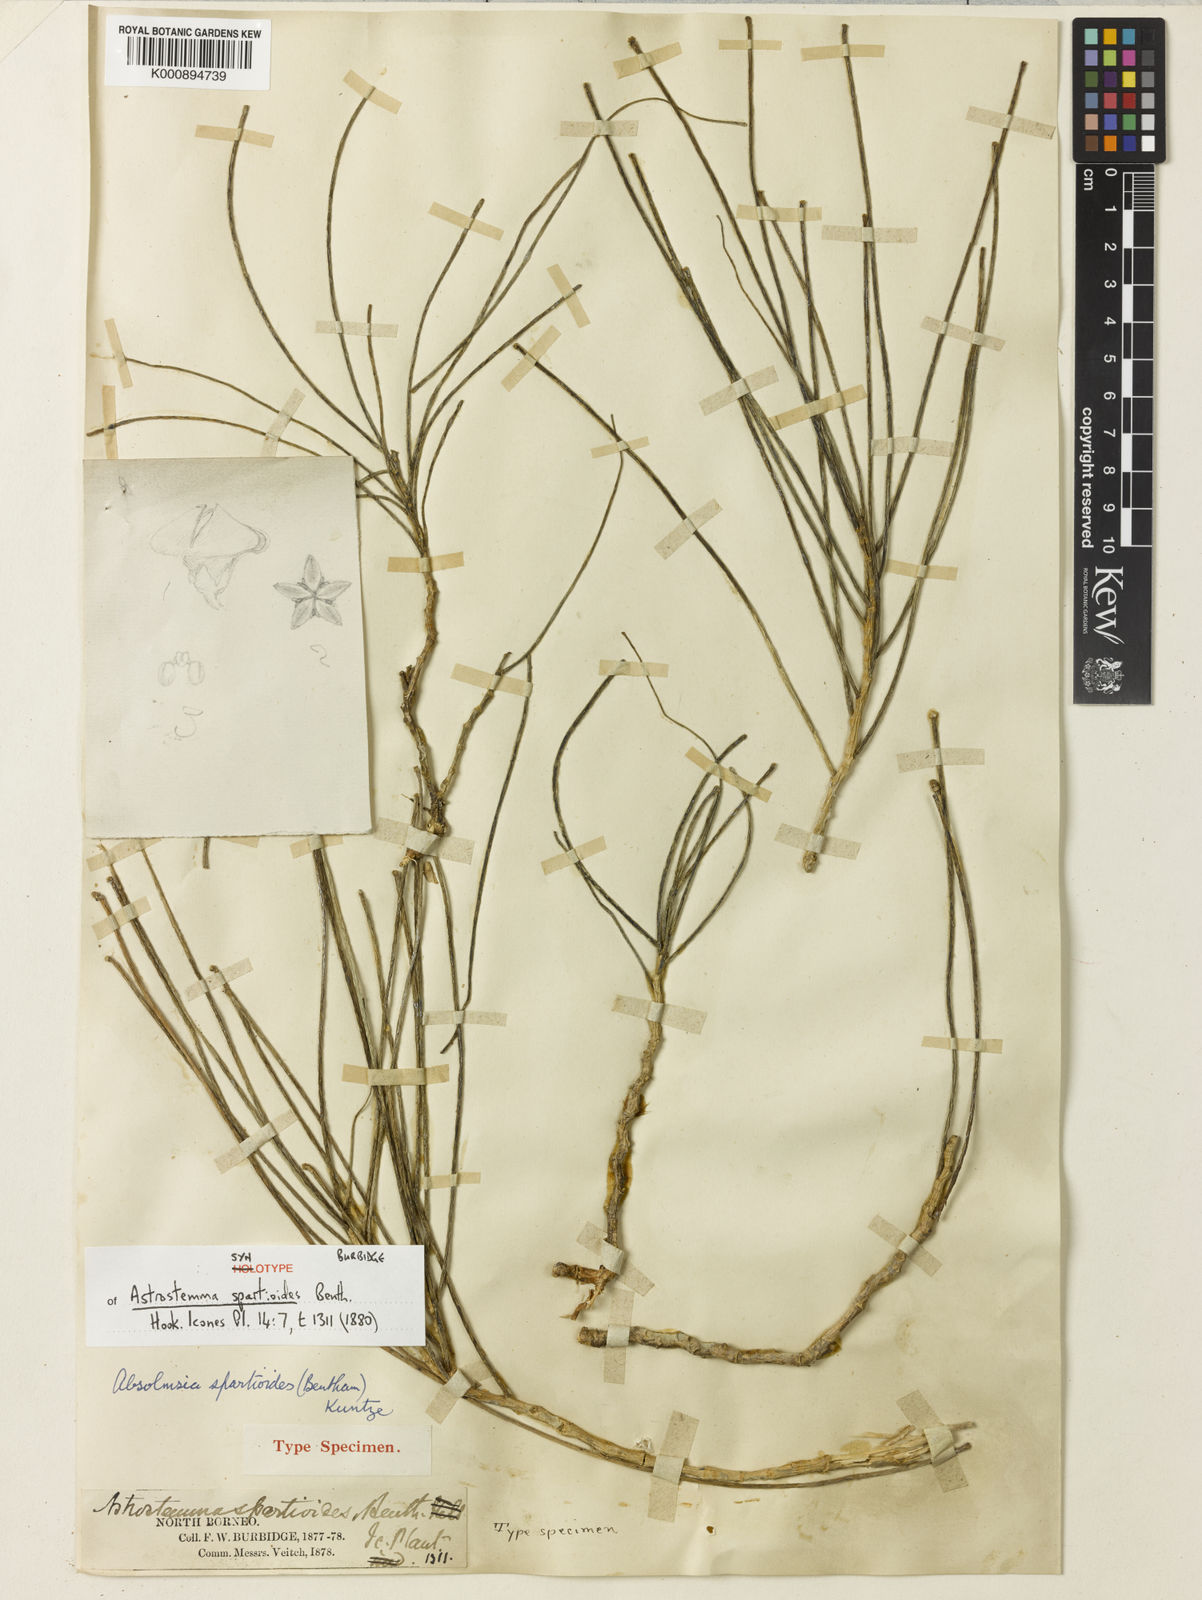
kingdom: Plantae
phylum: Tracheophyta
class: Magnoliopsida
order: Gentianales
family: Apocynaceae
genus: Hoya
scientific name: Hoya spartioides
